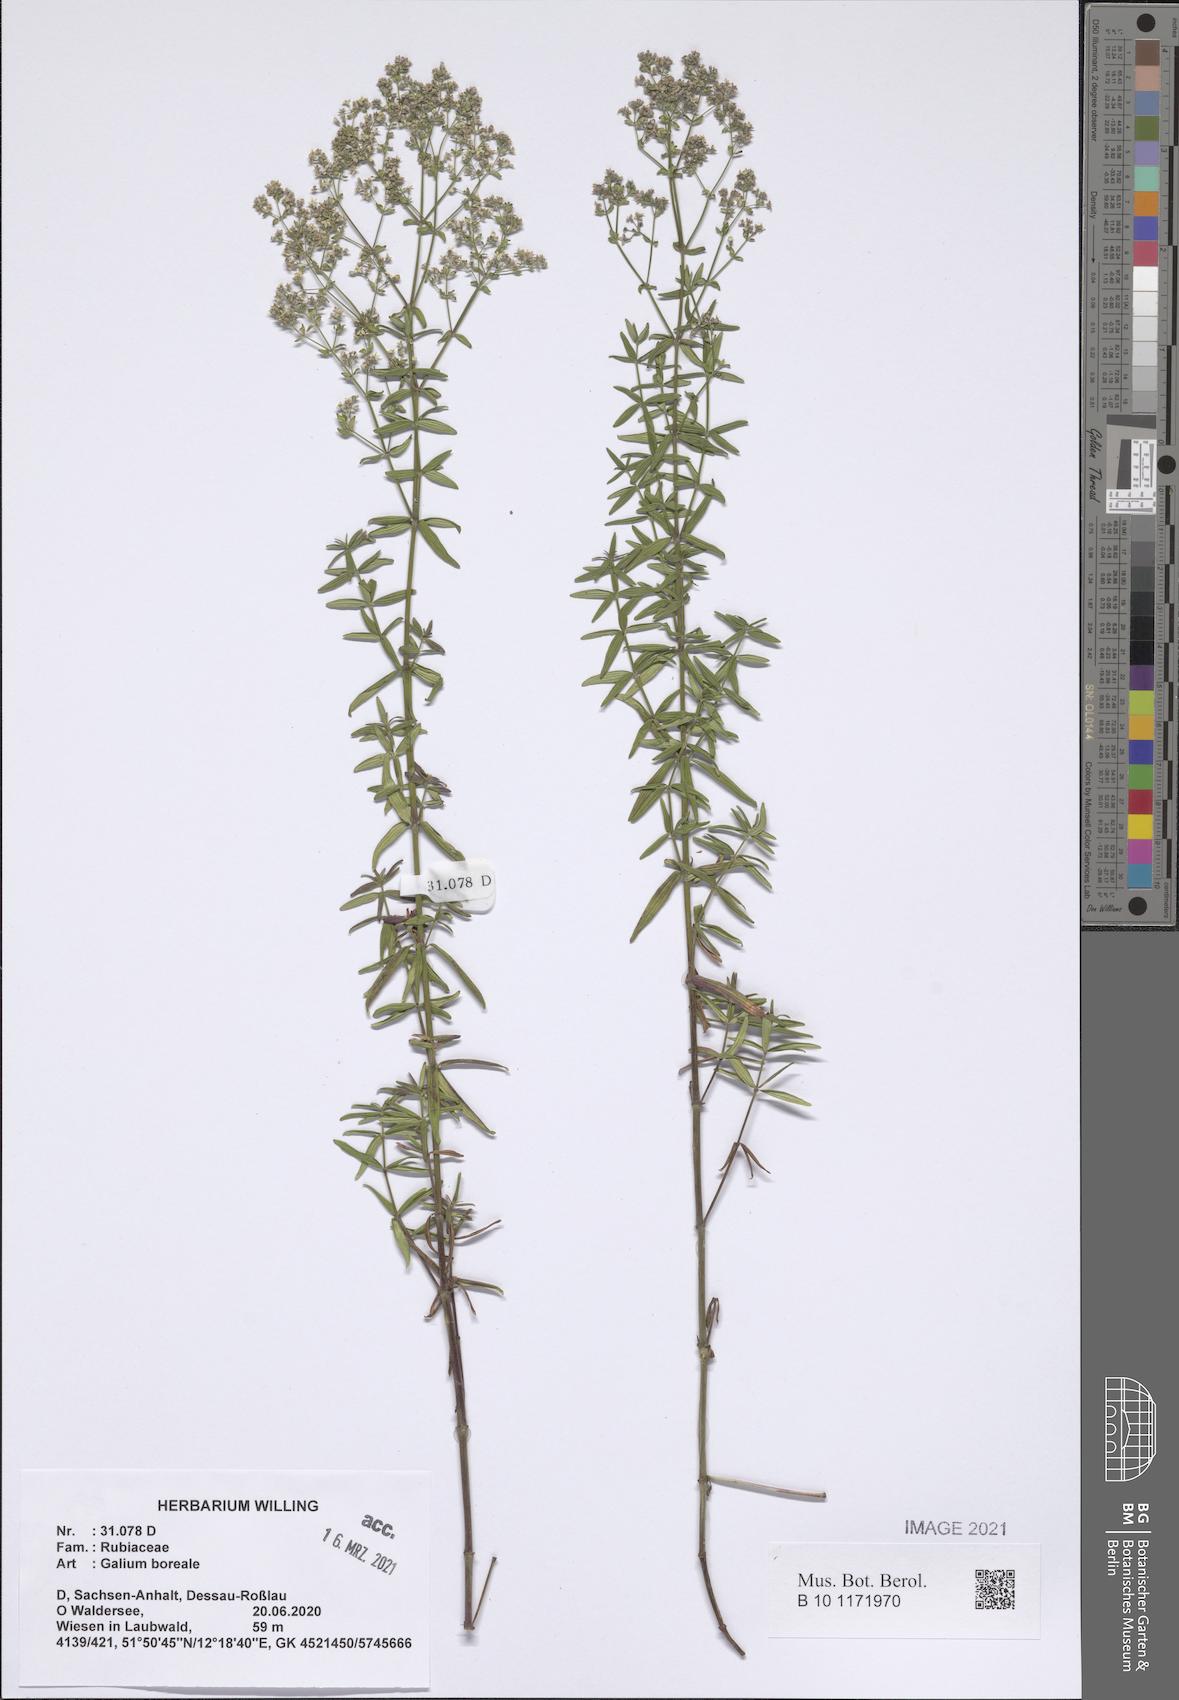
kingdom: Plantae
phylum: Tracheophyta
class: Magnoliopsida
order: Gentianales
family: Rubiaceae
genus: Galium
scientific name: Galium boreale
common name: Northern bedstraw
